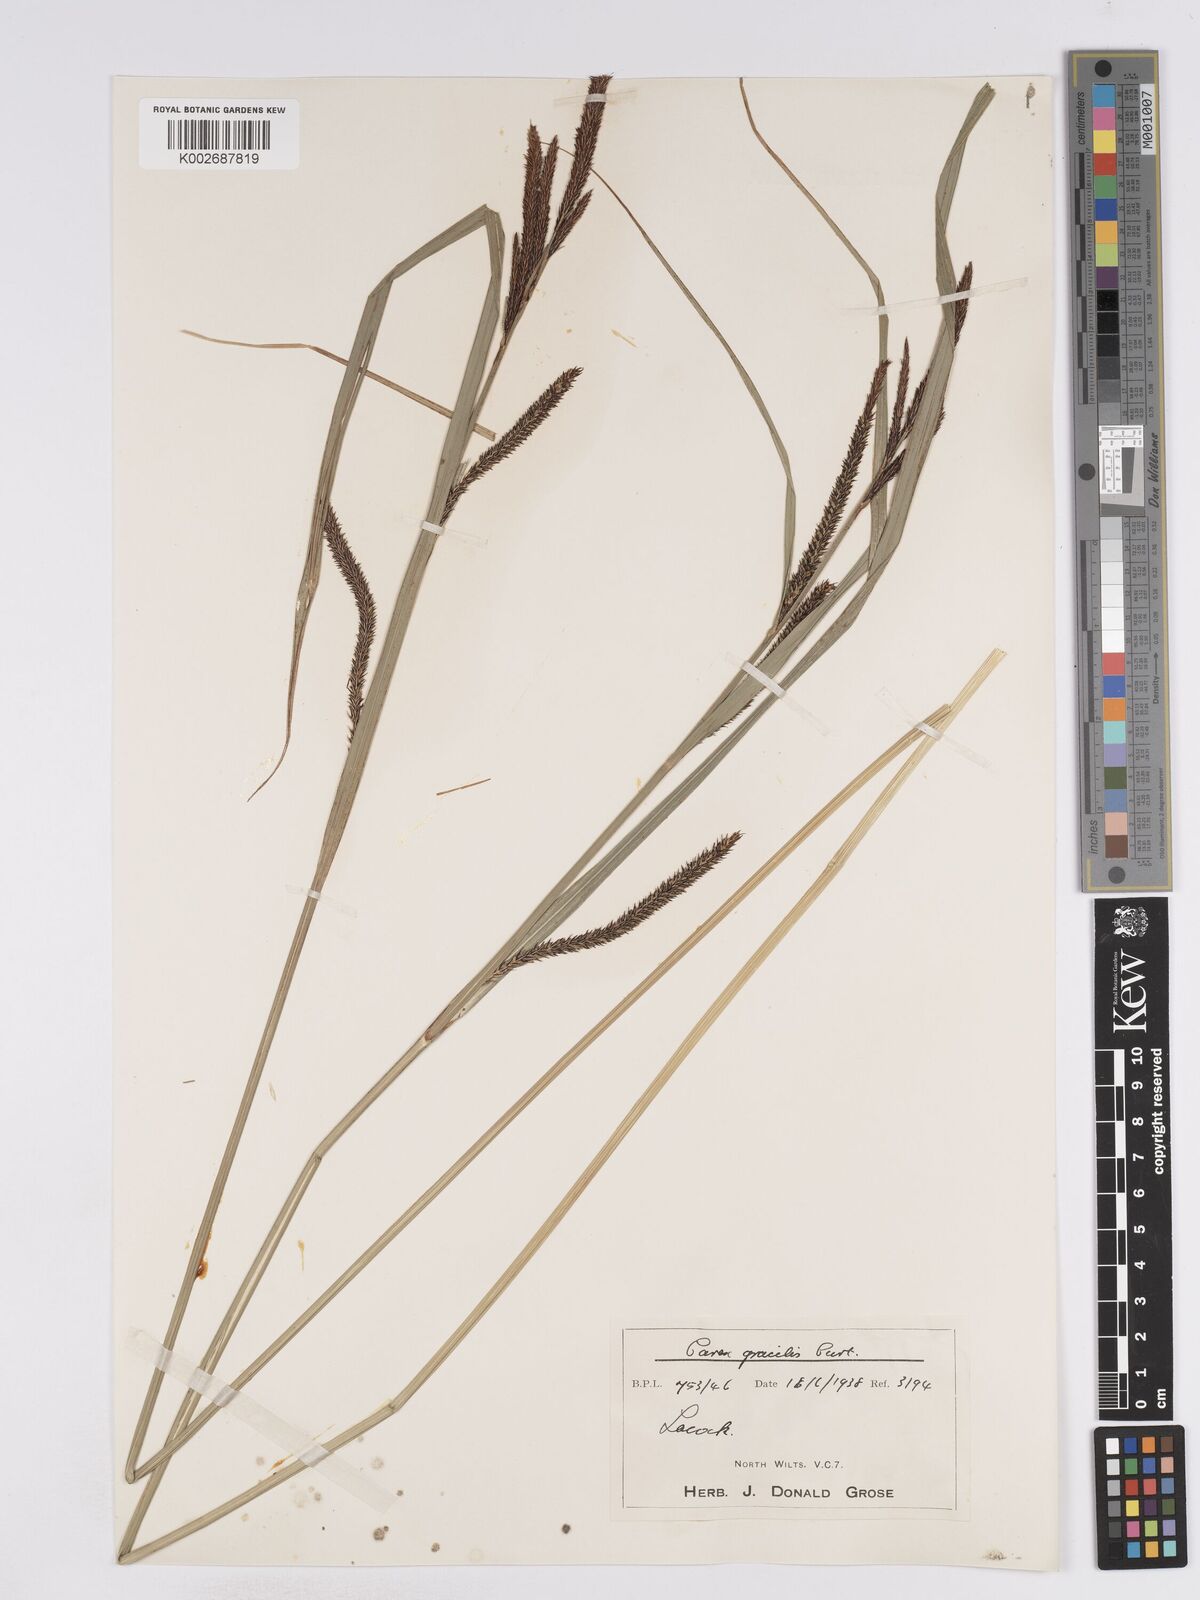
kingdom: Plantae
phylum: Tracheophyta
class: Liliopsida
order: Poales
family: Cyperaceae
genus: Carex
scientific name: Carex acuta
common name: Slender tufted-sedge
